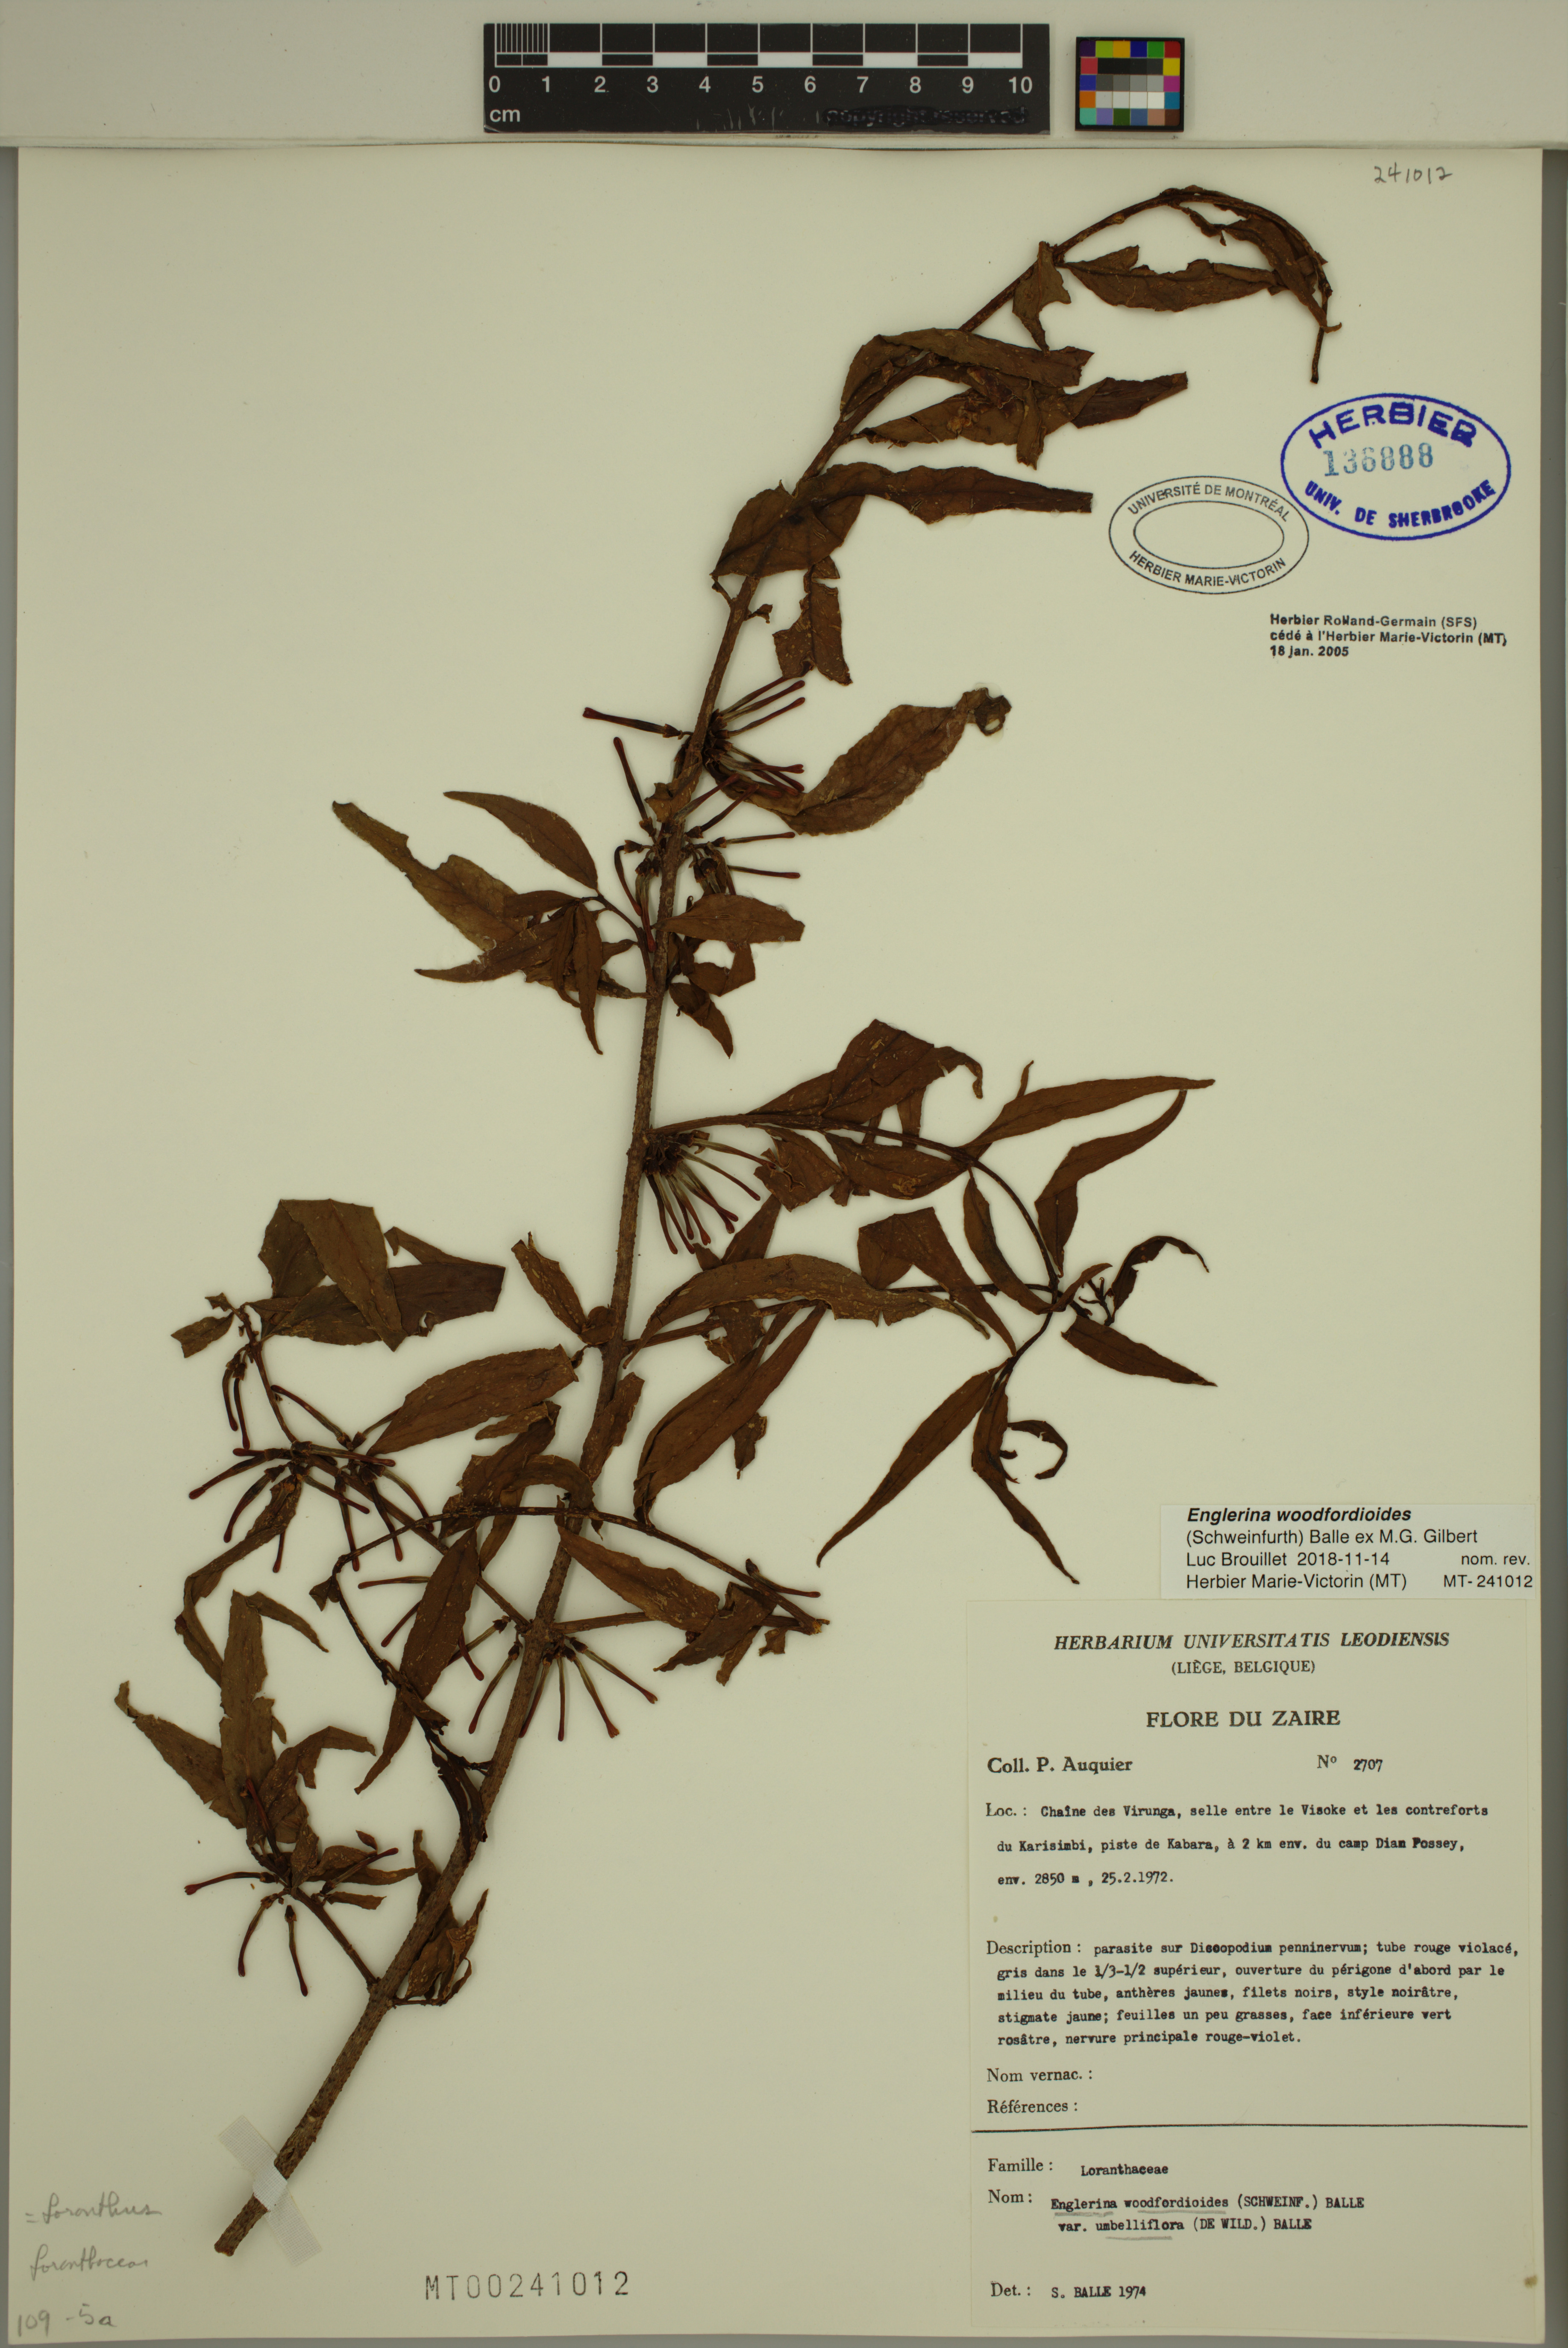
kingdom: Plantae
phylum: Tracheophyta
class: Magnoliopsida
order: Santalales
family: Loranthaceae
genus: Englerina
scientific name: Englerina woodfordioides
